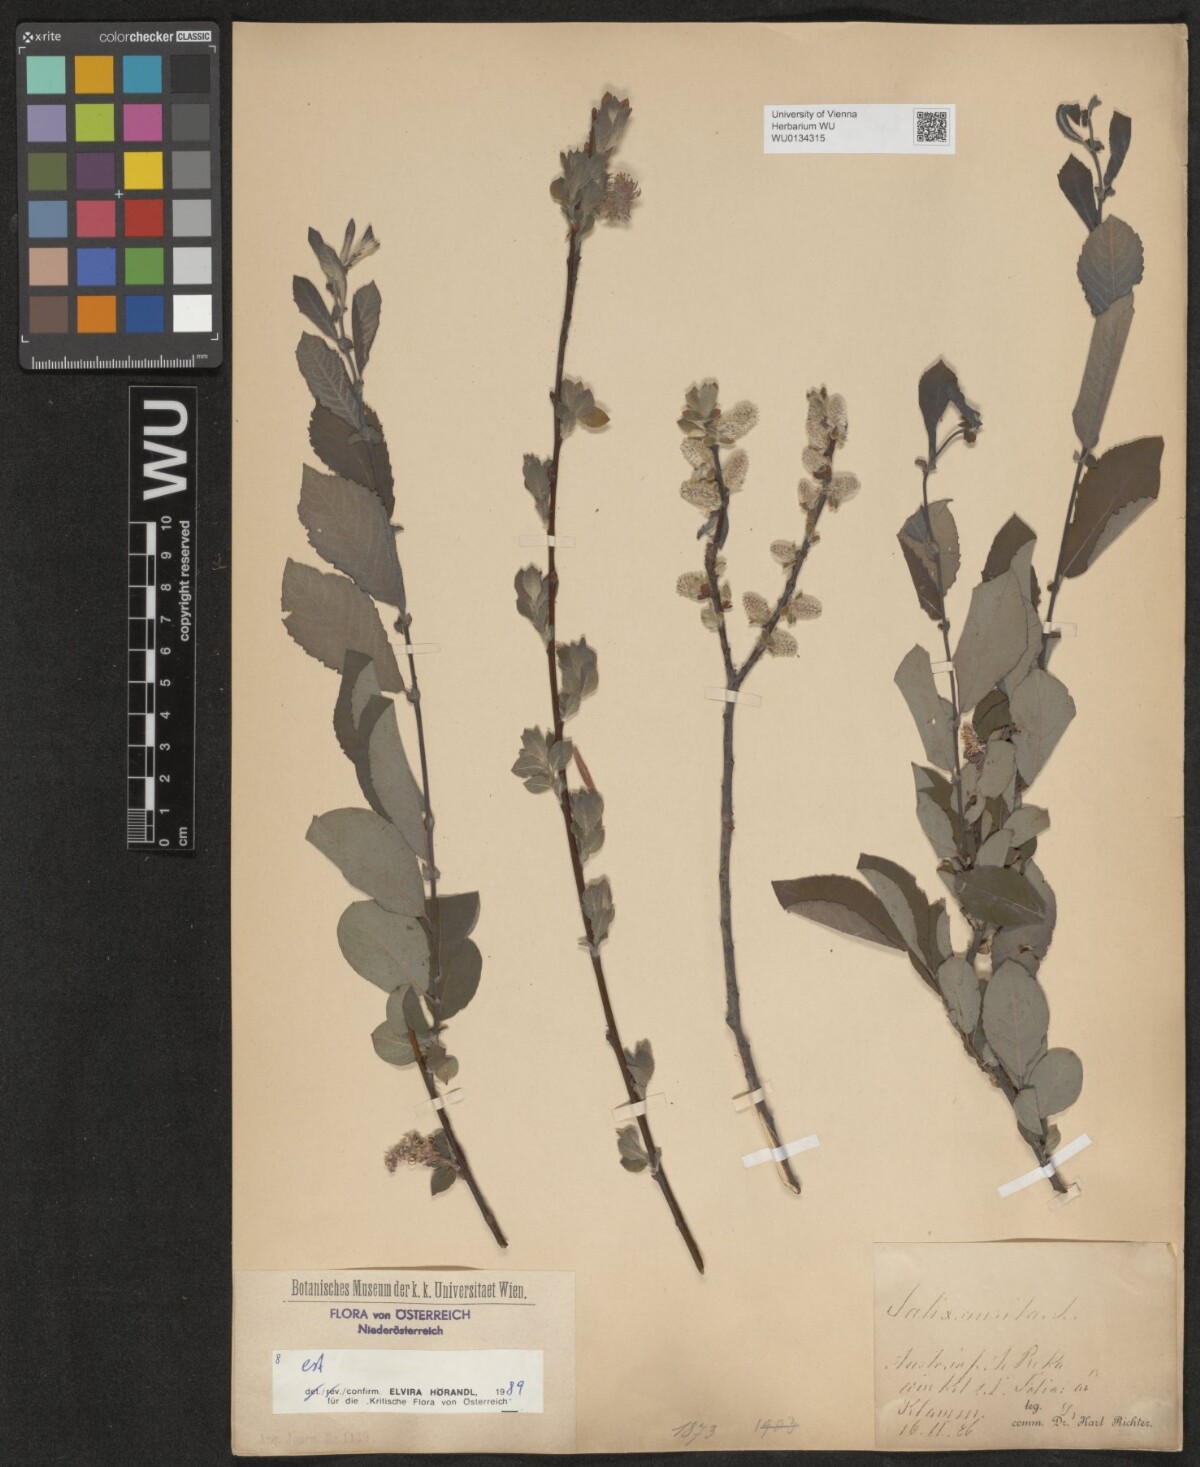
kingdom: Plantae
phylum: Tracheophyta
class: Magnoliopsida
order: Malpighiales
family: Salicaceae
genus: Salix
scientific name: Salix aurita
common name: Eared willow
